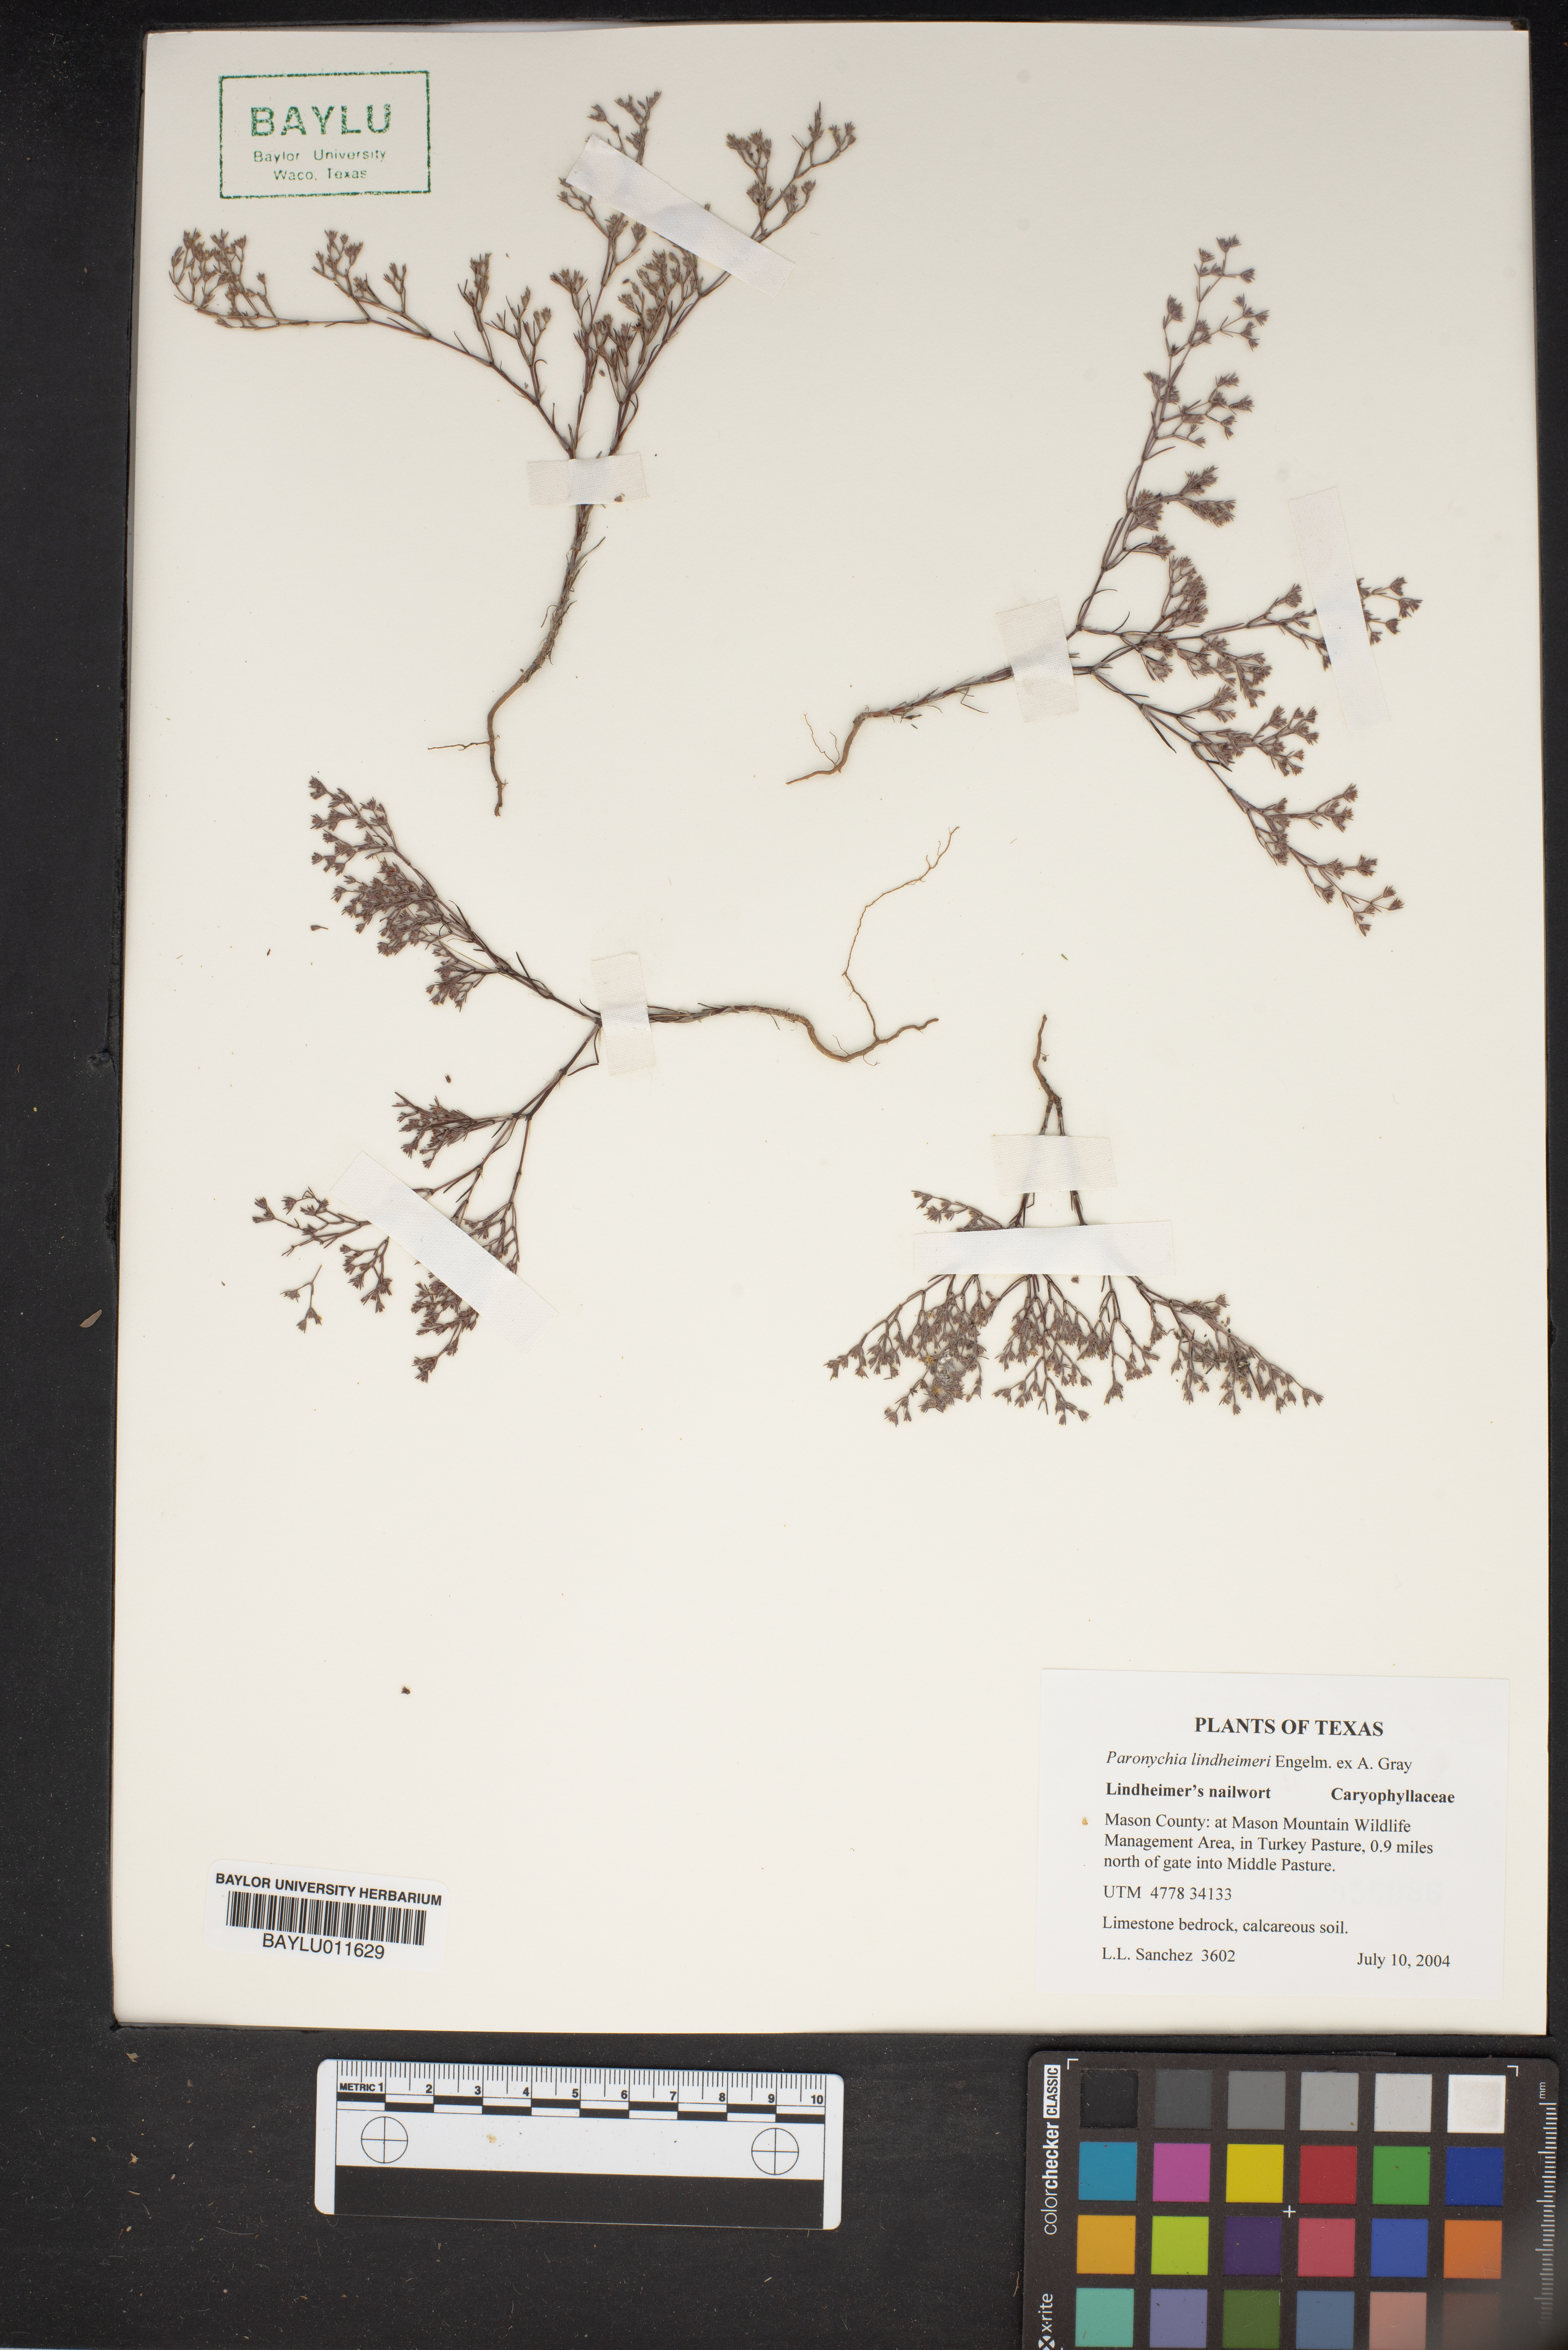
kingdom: Plantae
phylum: Tracheophyta
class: Magnoliopsida
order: Caryophyllales
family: Caryophyllaceae
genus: Paronychia
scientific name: Paronychia lindheimeri
